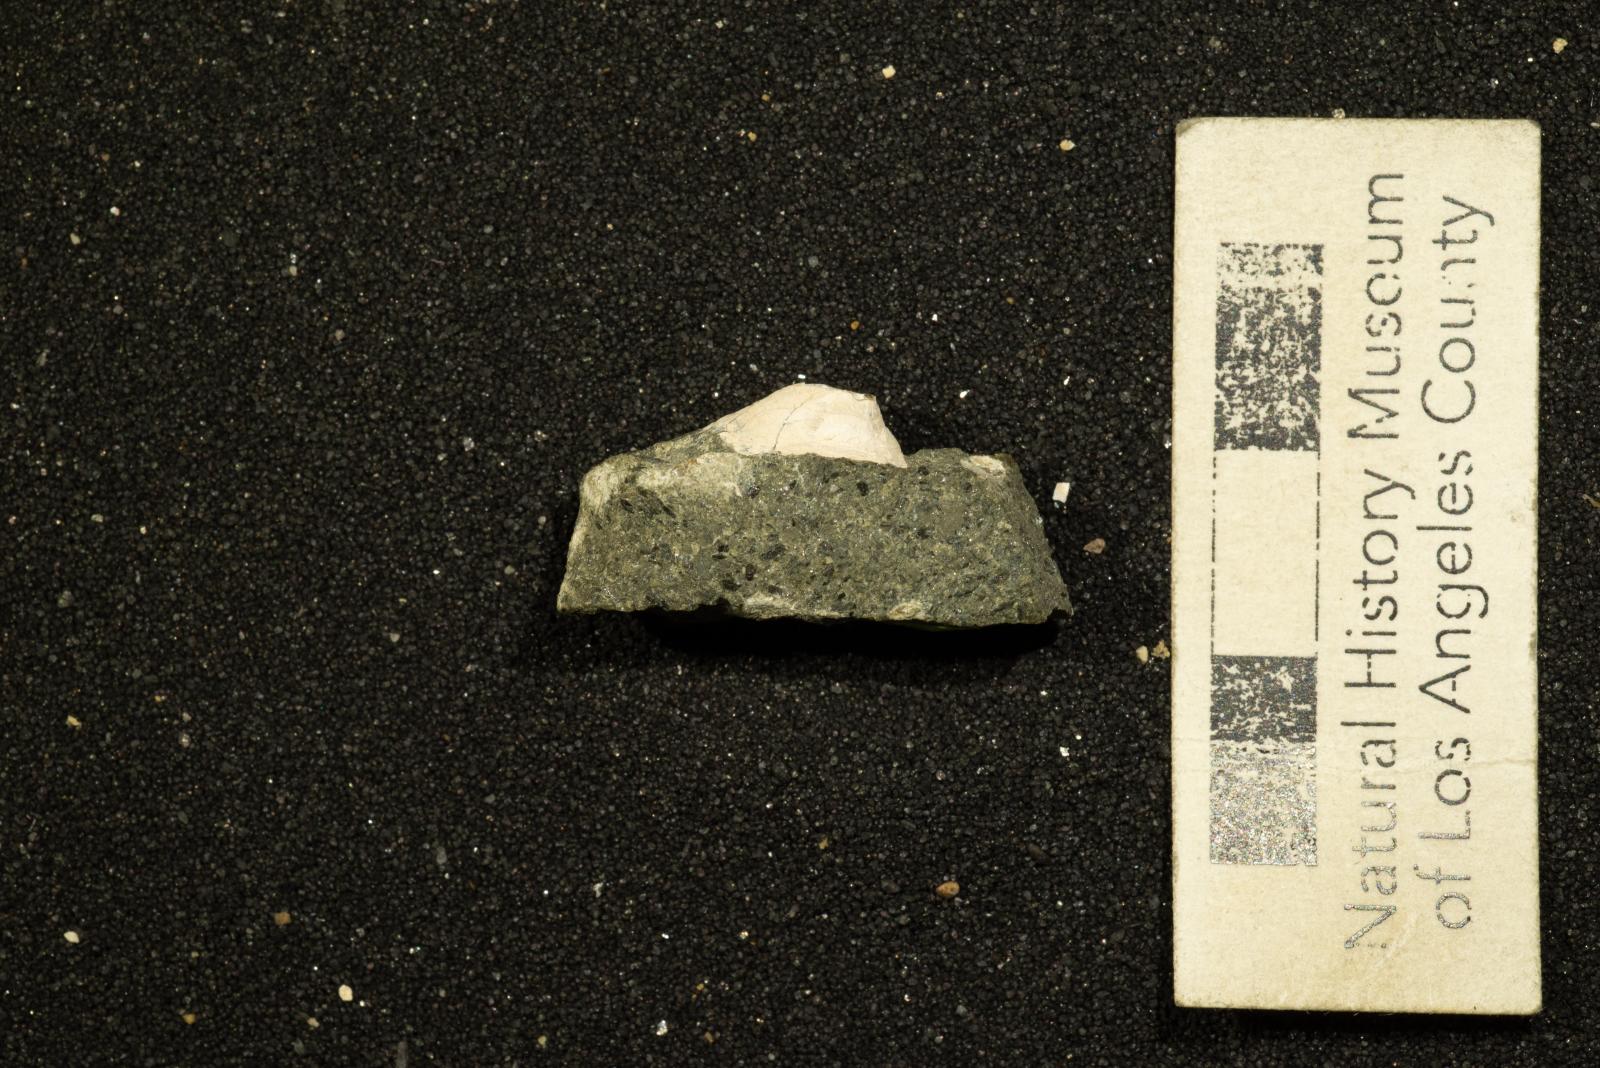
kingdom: Animalia
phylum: Mollusca
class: Gastropoda
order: Siphonariida
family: Siphonariidae
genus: Anisomyon
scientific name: Anisomyon
